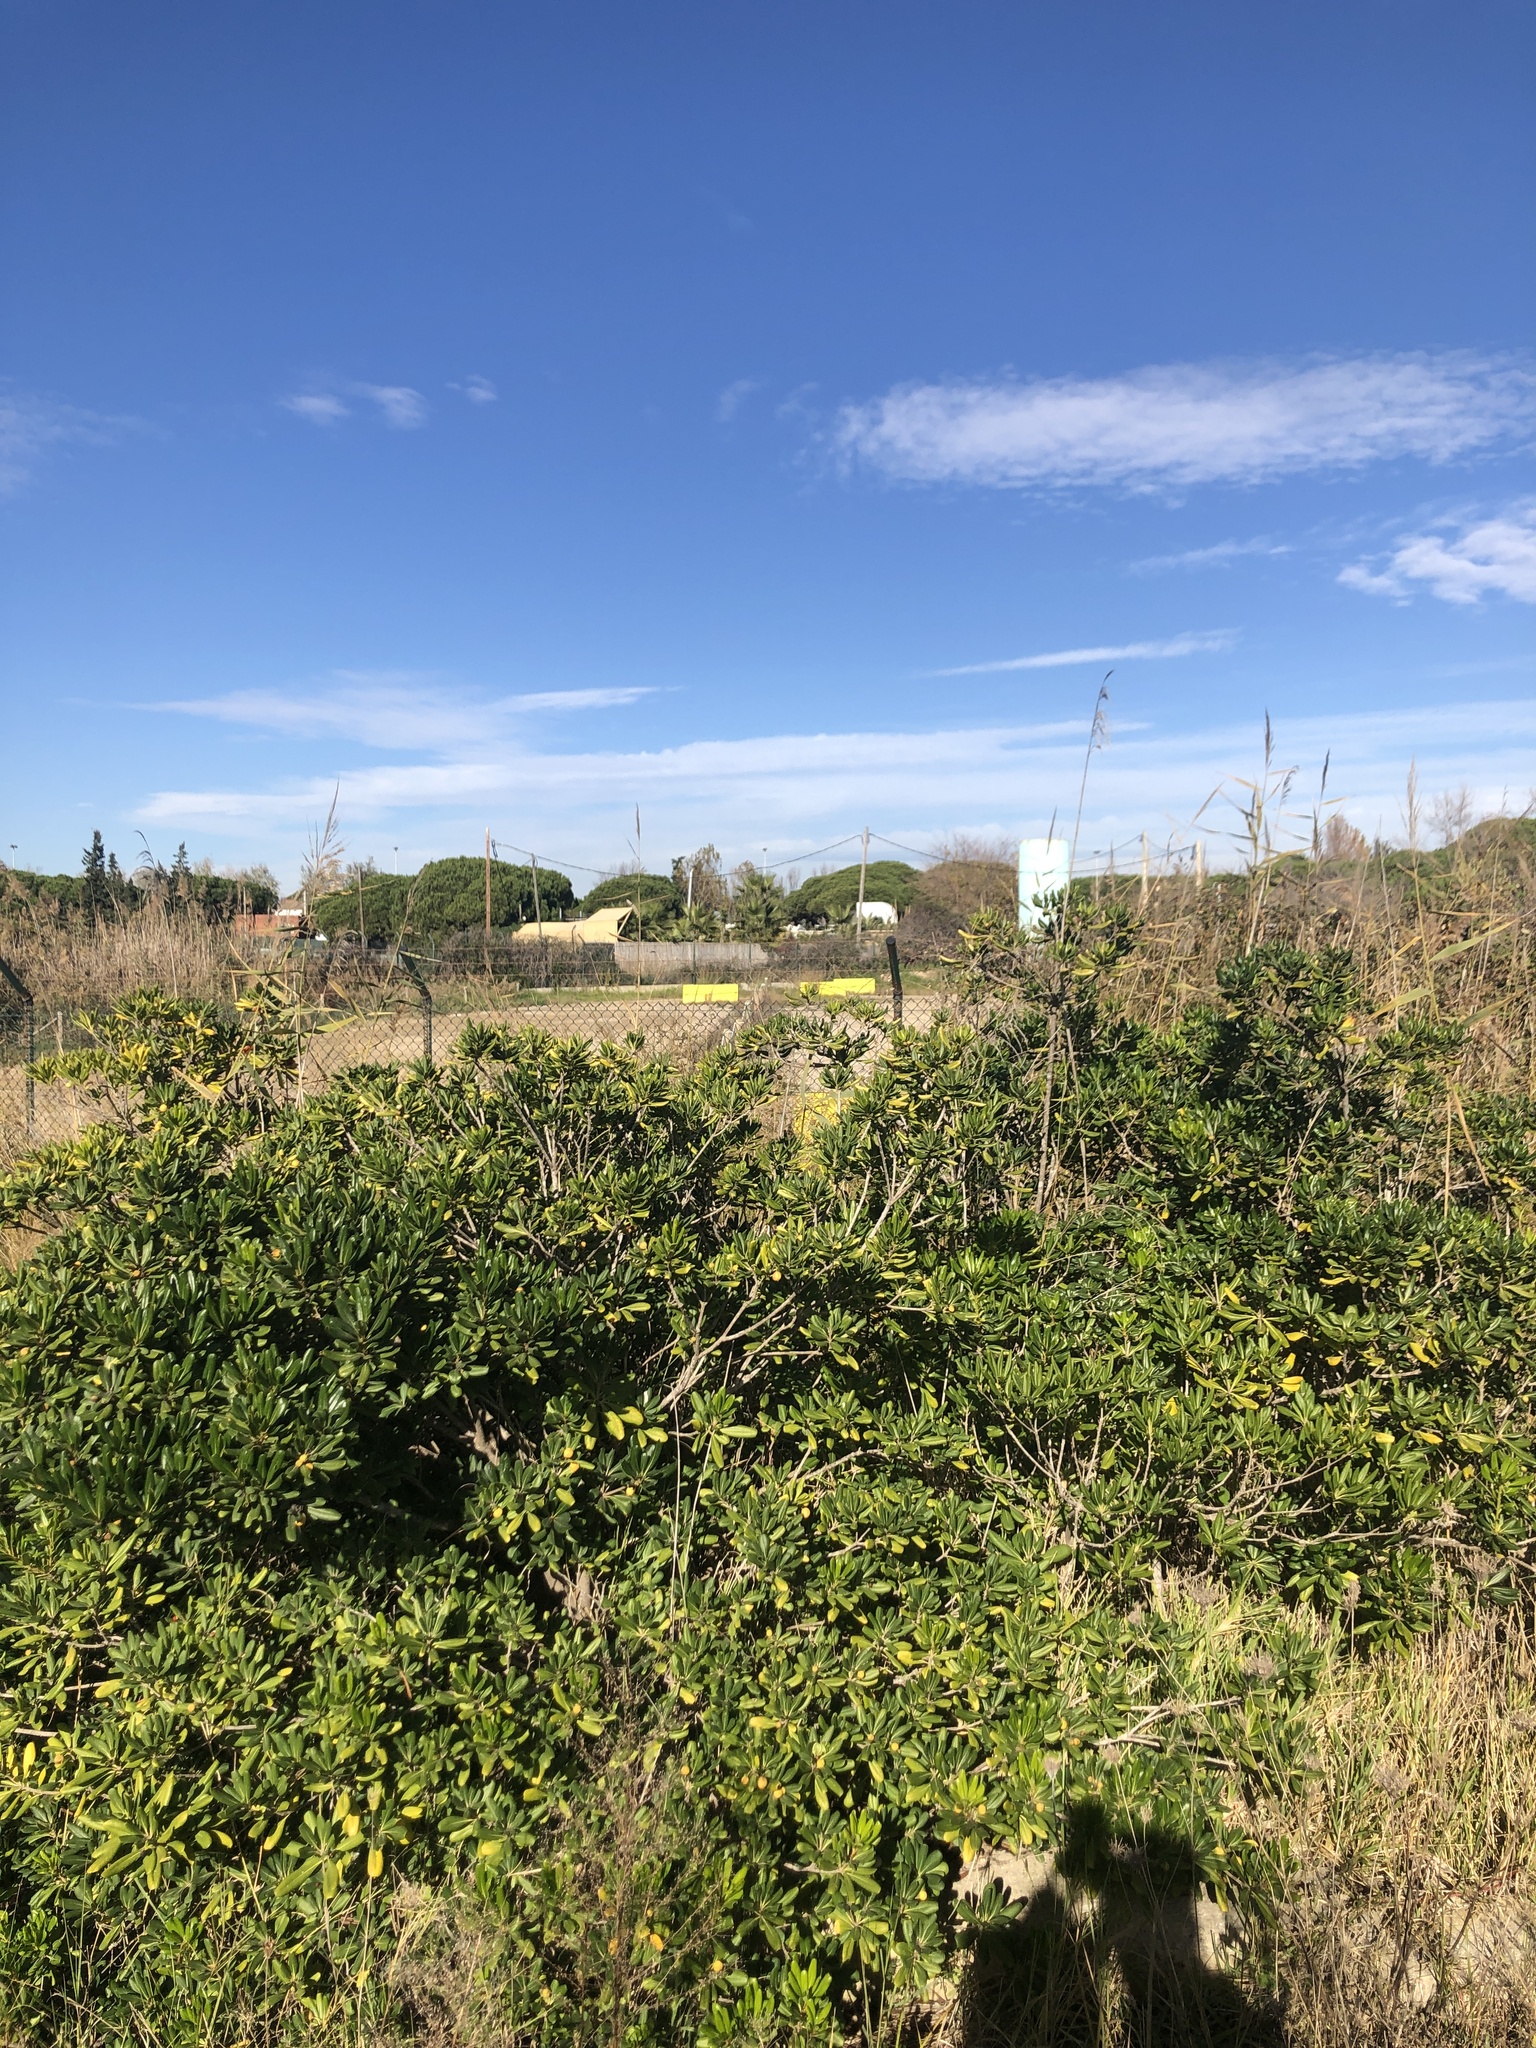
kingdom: Plantae
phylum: Tracheophyta
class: Magnoliopsida
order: Apiales
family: Pittosporaceae
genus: Pittosporum
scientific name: Pittosporum tobira
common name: Japanese cheesewood
